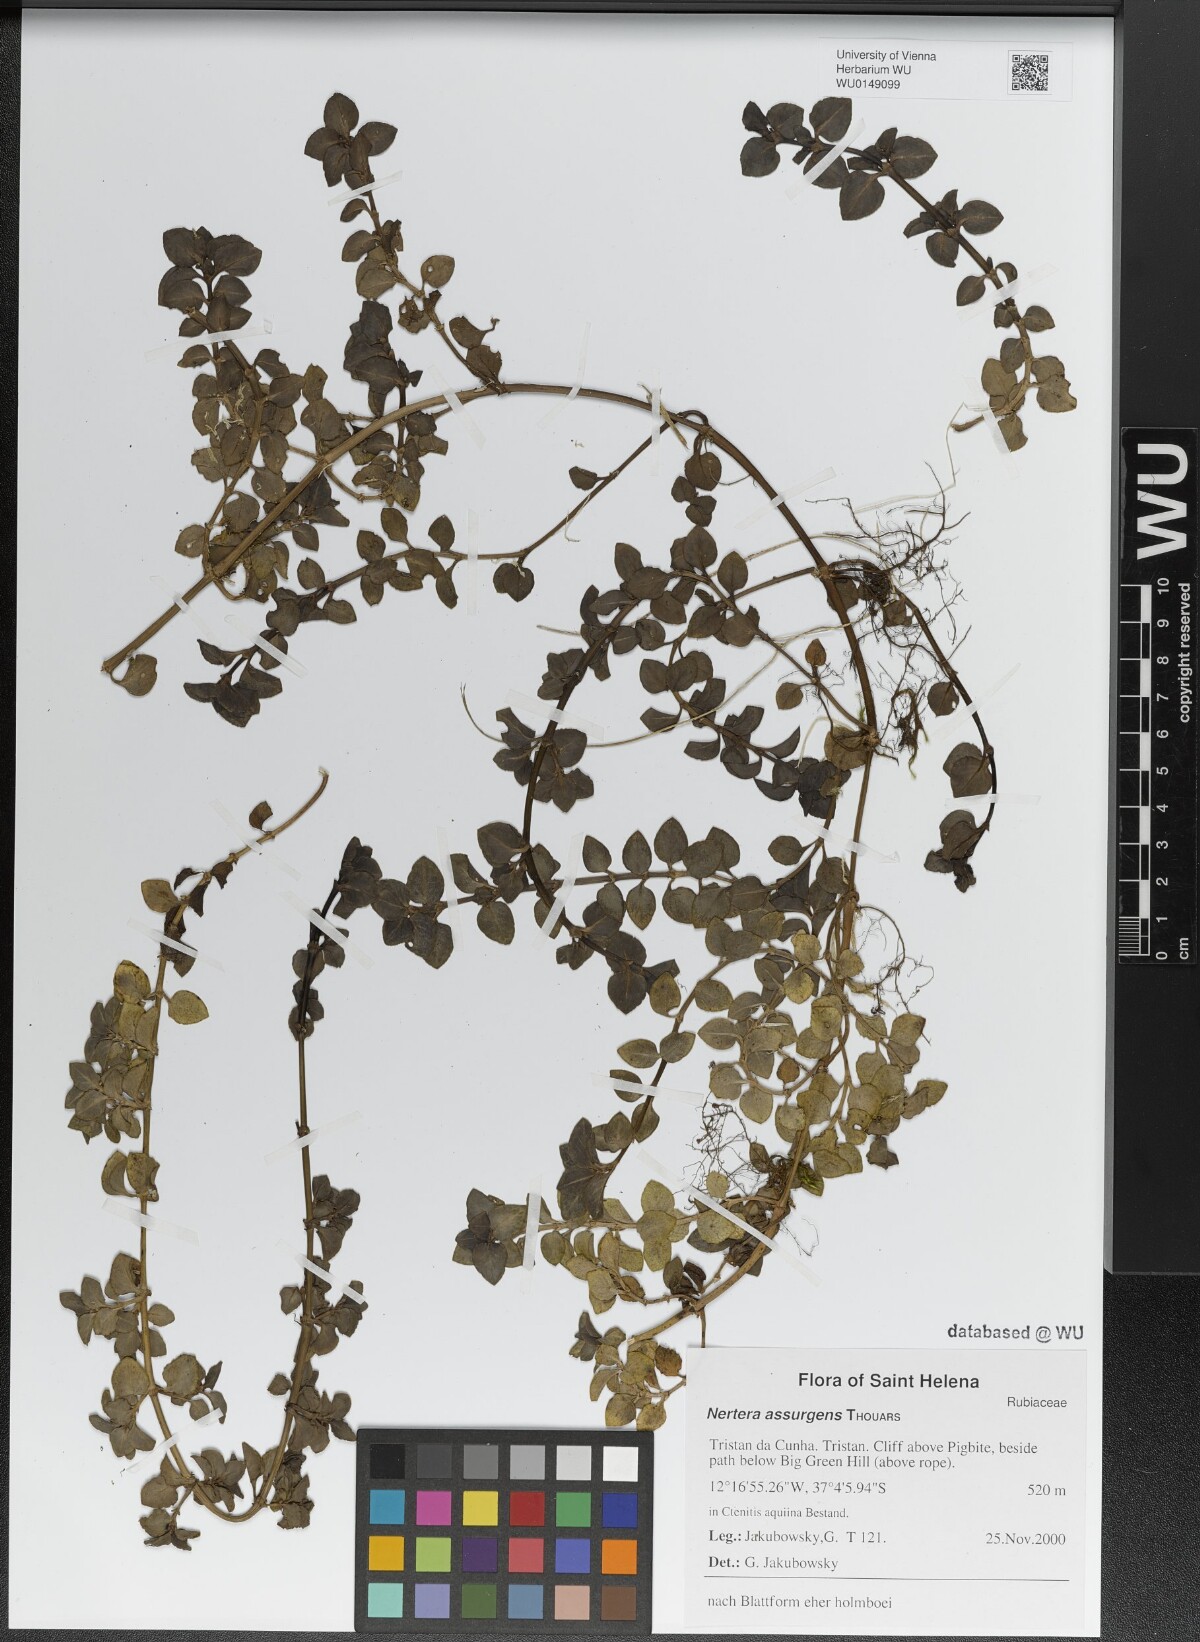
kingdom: Plantae
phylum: Tracheophyta
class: Magnoliopsida
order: Gentianales
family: Rubiaceae
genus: Nertera
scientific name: Nertera granadensis
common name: Beadplant
